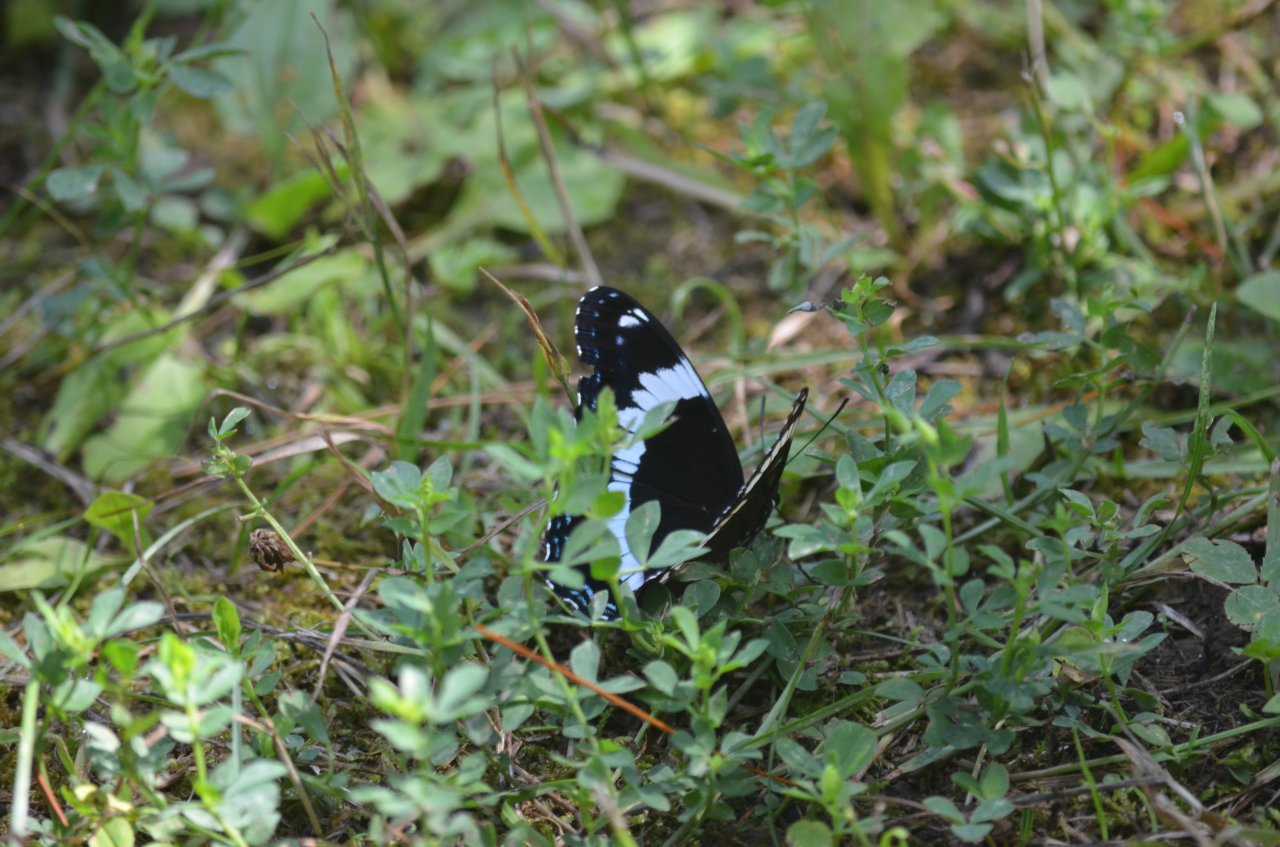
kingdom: Animalia
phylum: Arthropoda
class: Insecta
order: Lepidoptera
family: Nymphalidae
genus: Limenitis
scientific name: Limenitis arthemis
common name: Red-spotted Admiral
